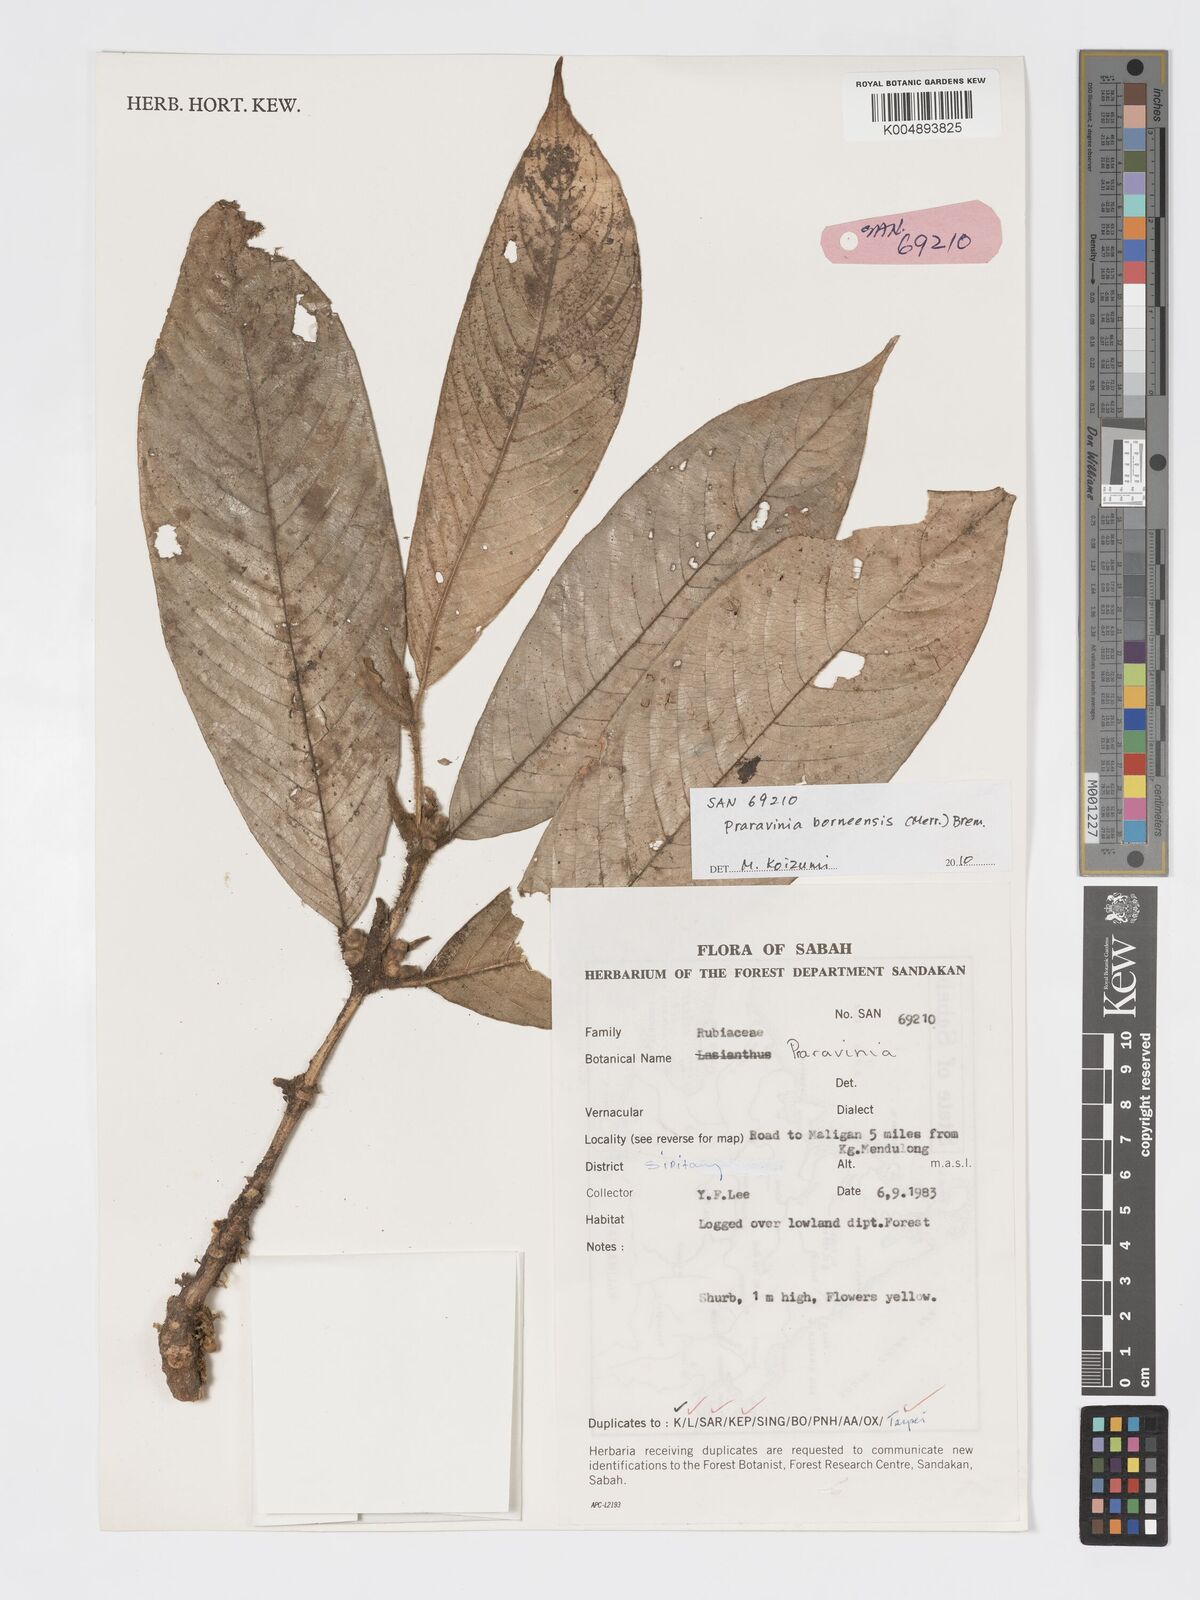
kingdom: Plantae
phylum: Tracheophyta
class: Magnoliopsida
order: Gentianales
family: Rubiaceae
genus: Praravinia
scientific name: Praravinia borneensis
